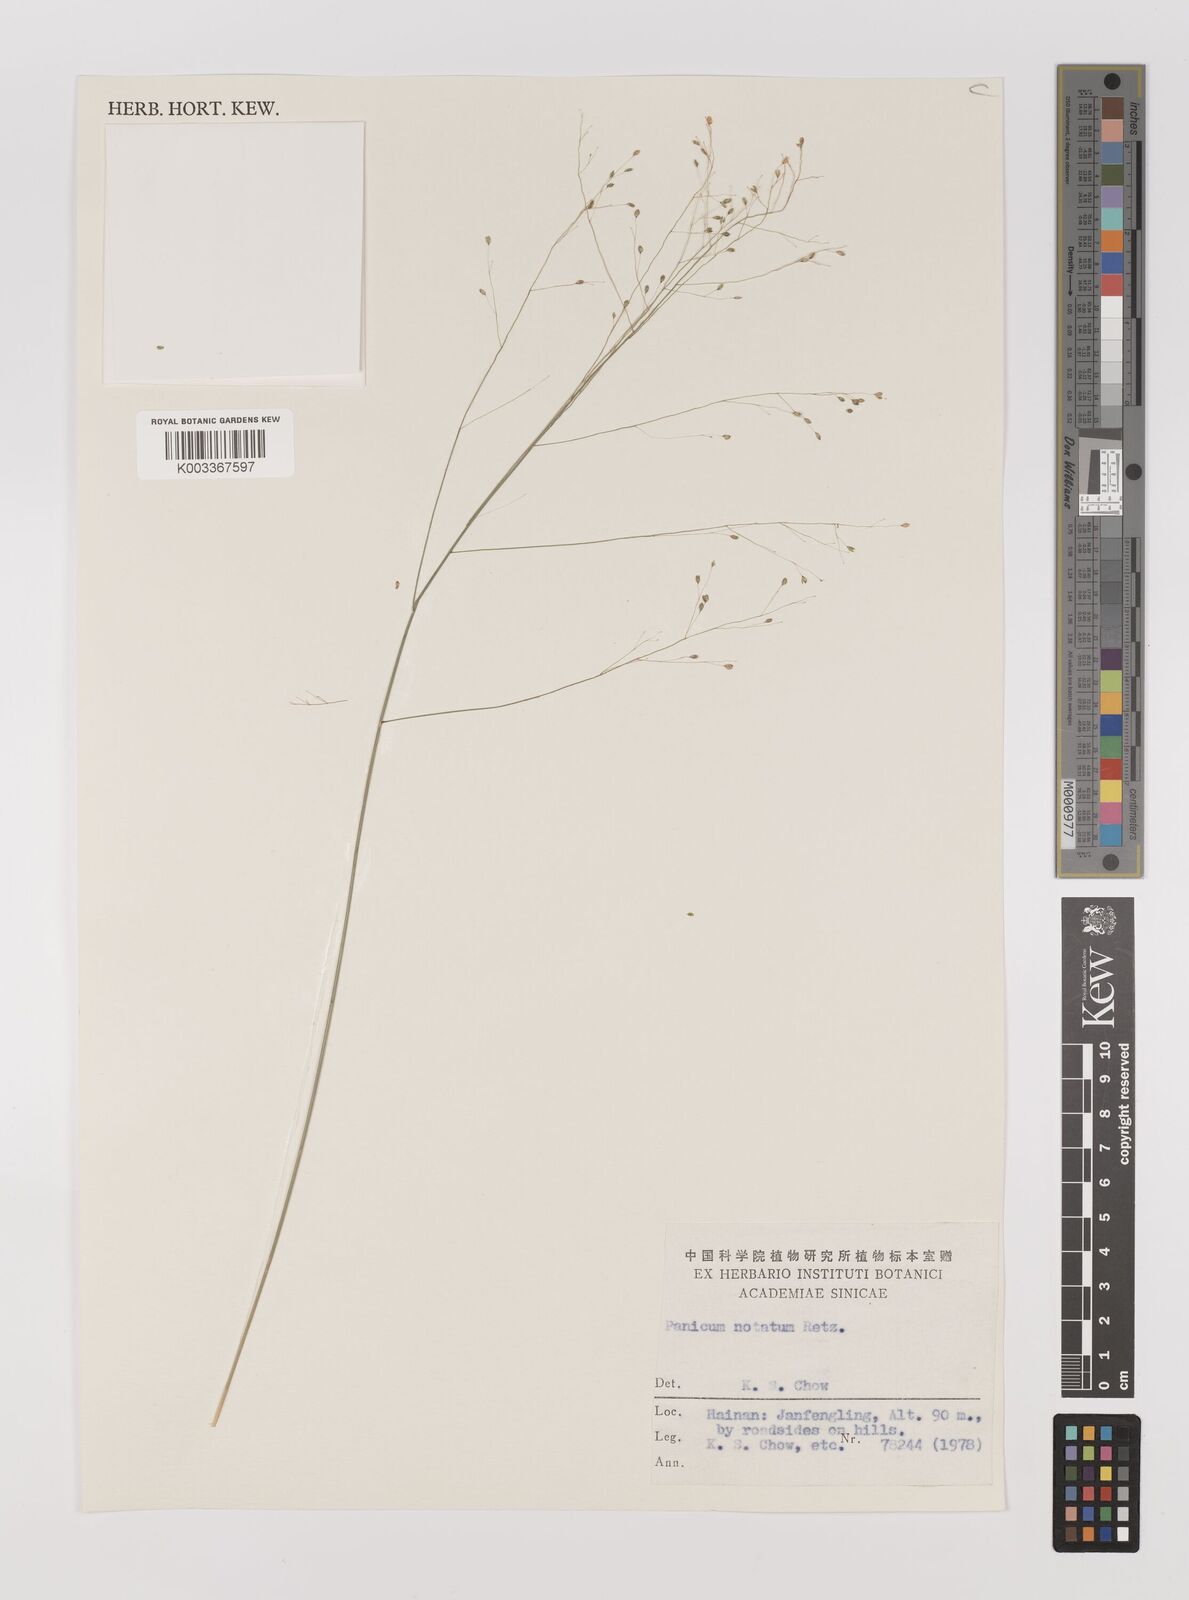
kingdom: Plantae
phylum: Tracheophyta
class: Liliopsida
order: Poales
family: Poaceae
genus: Panicum
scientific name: Panicum notatum
